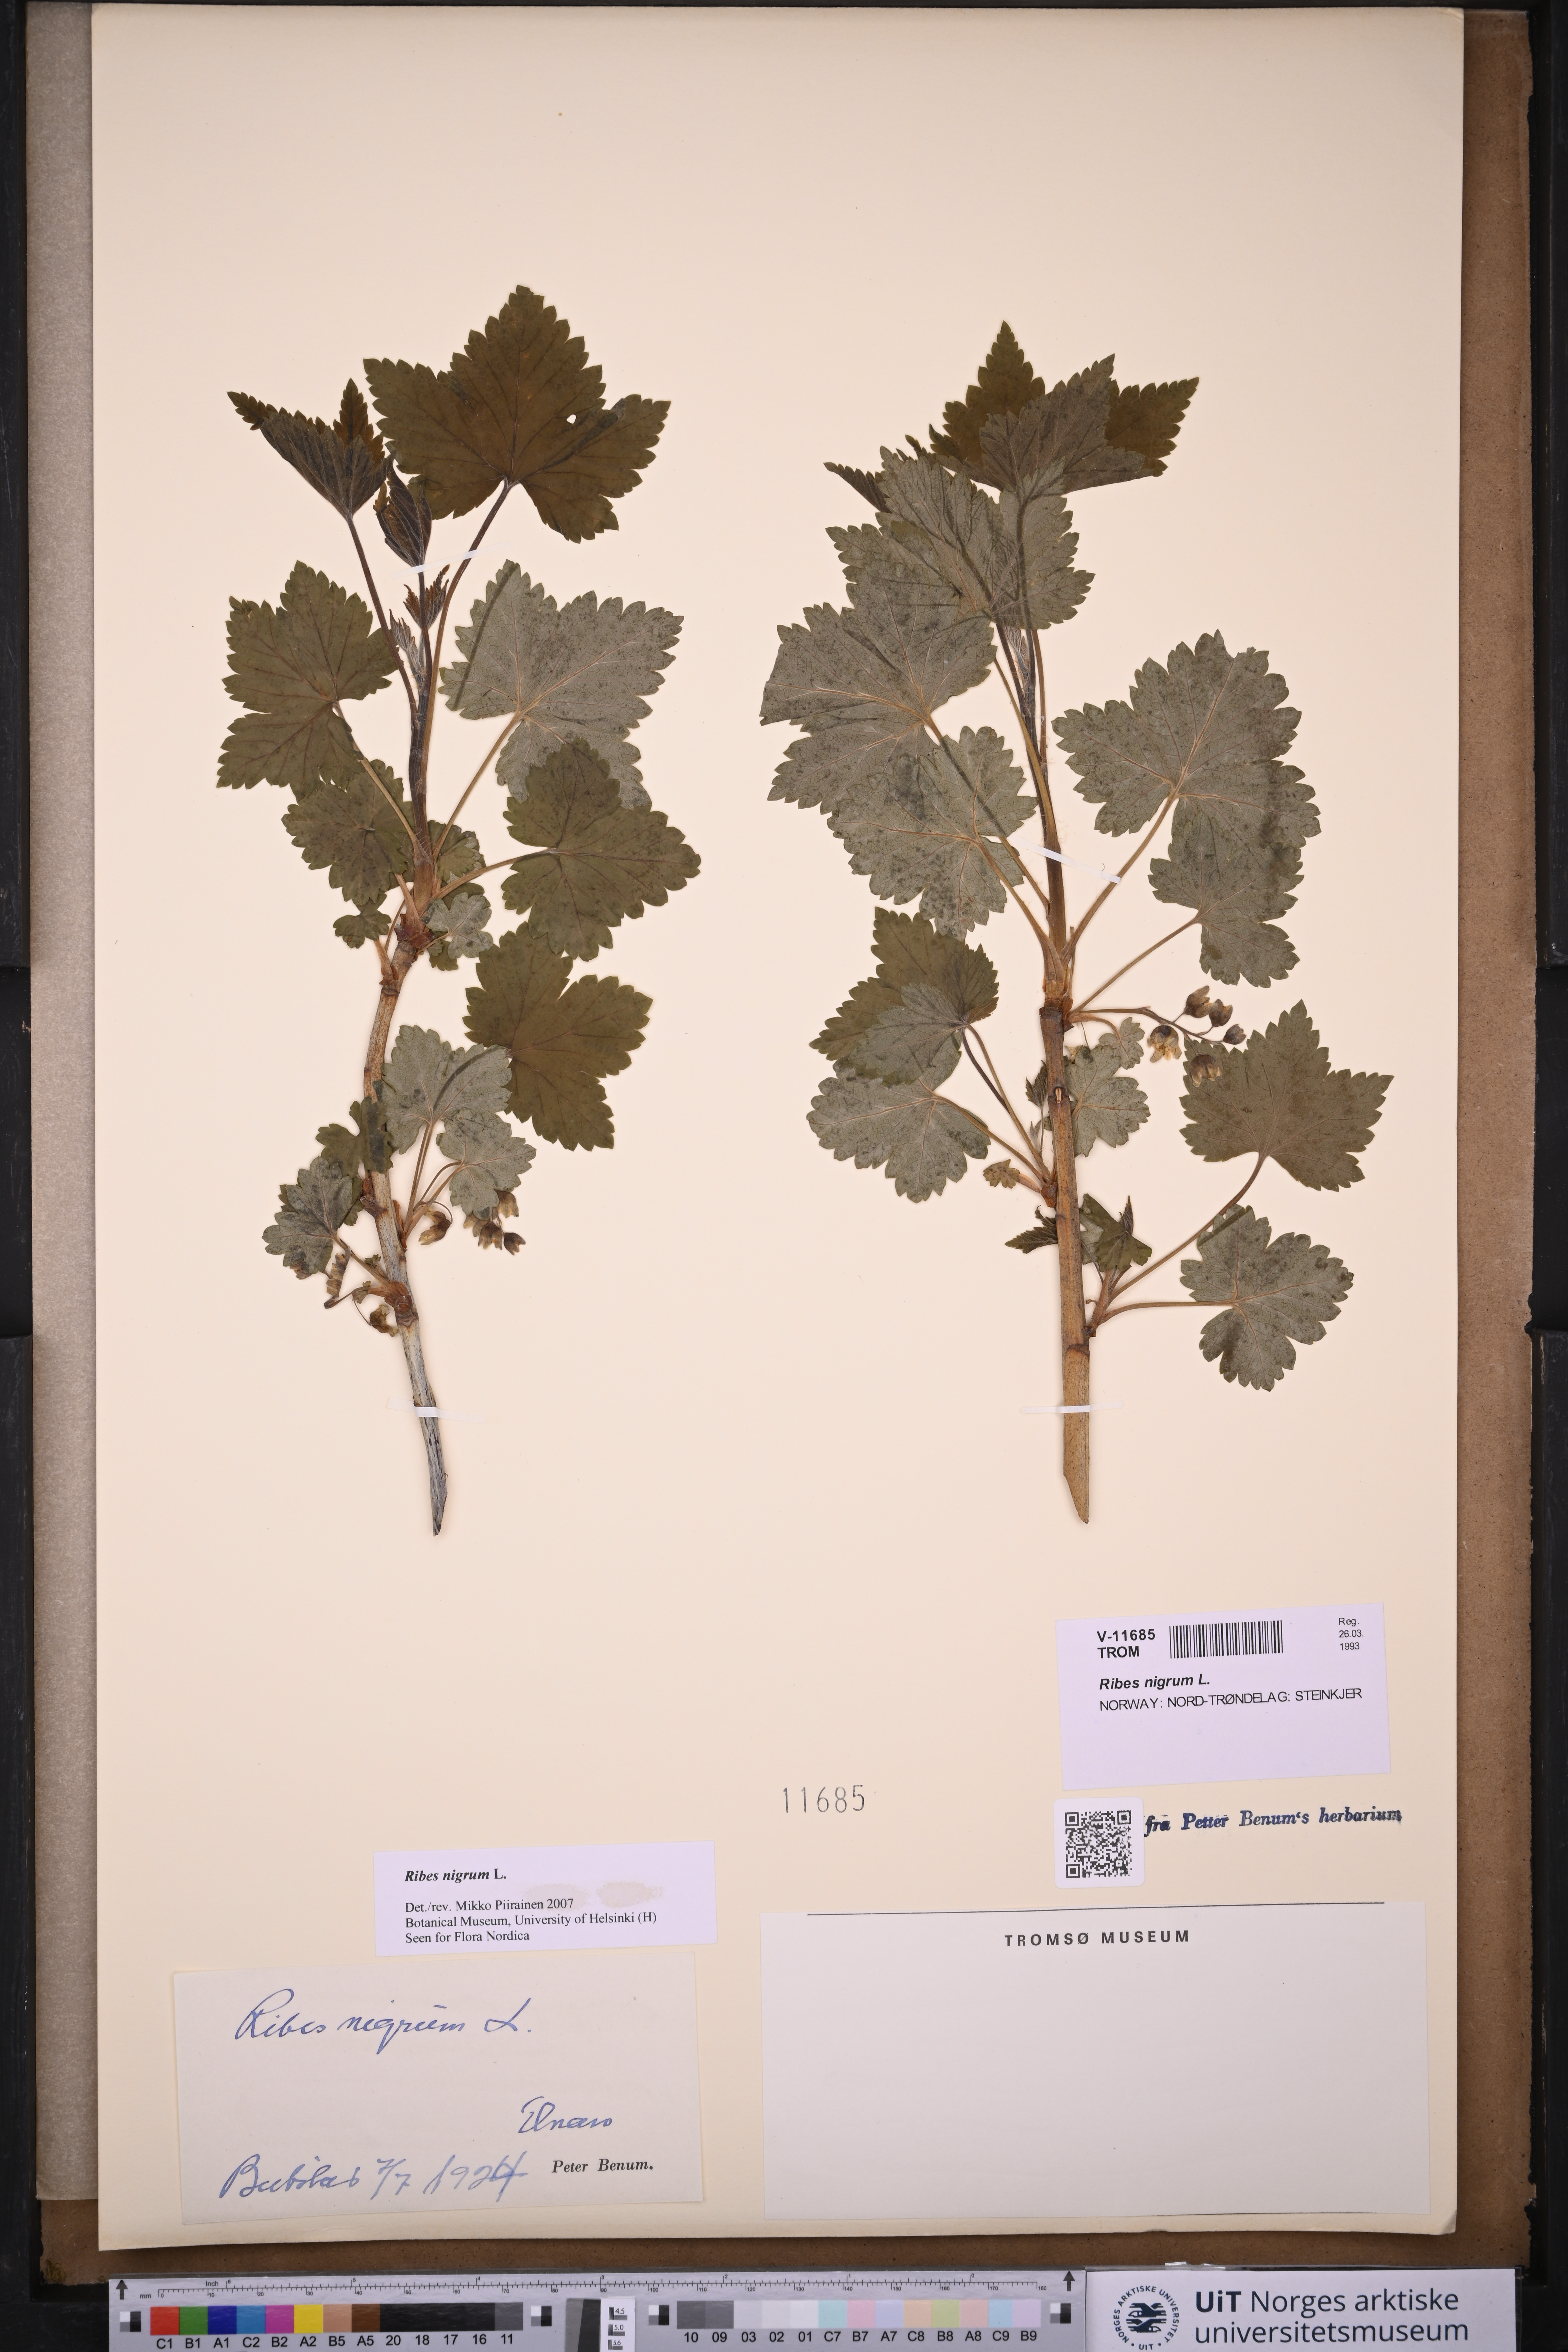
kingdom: Plantae
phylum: Tracheophyta
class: Magnoliopsida
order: Saxifragales
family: Grossulariaceae
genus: Ribes
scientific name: Ribes nigrum
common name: Black currant
